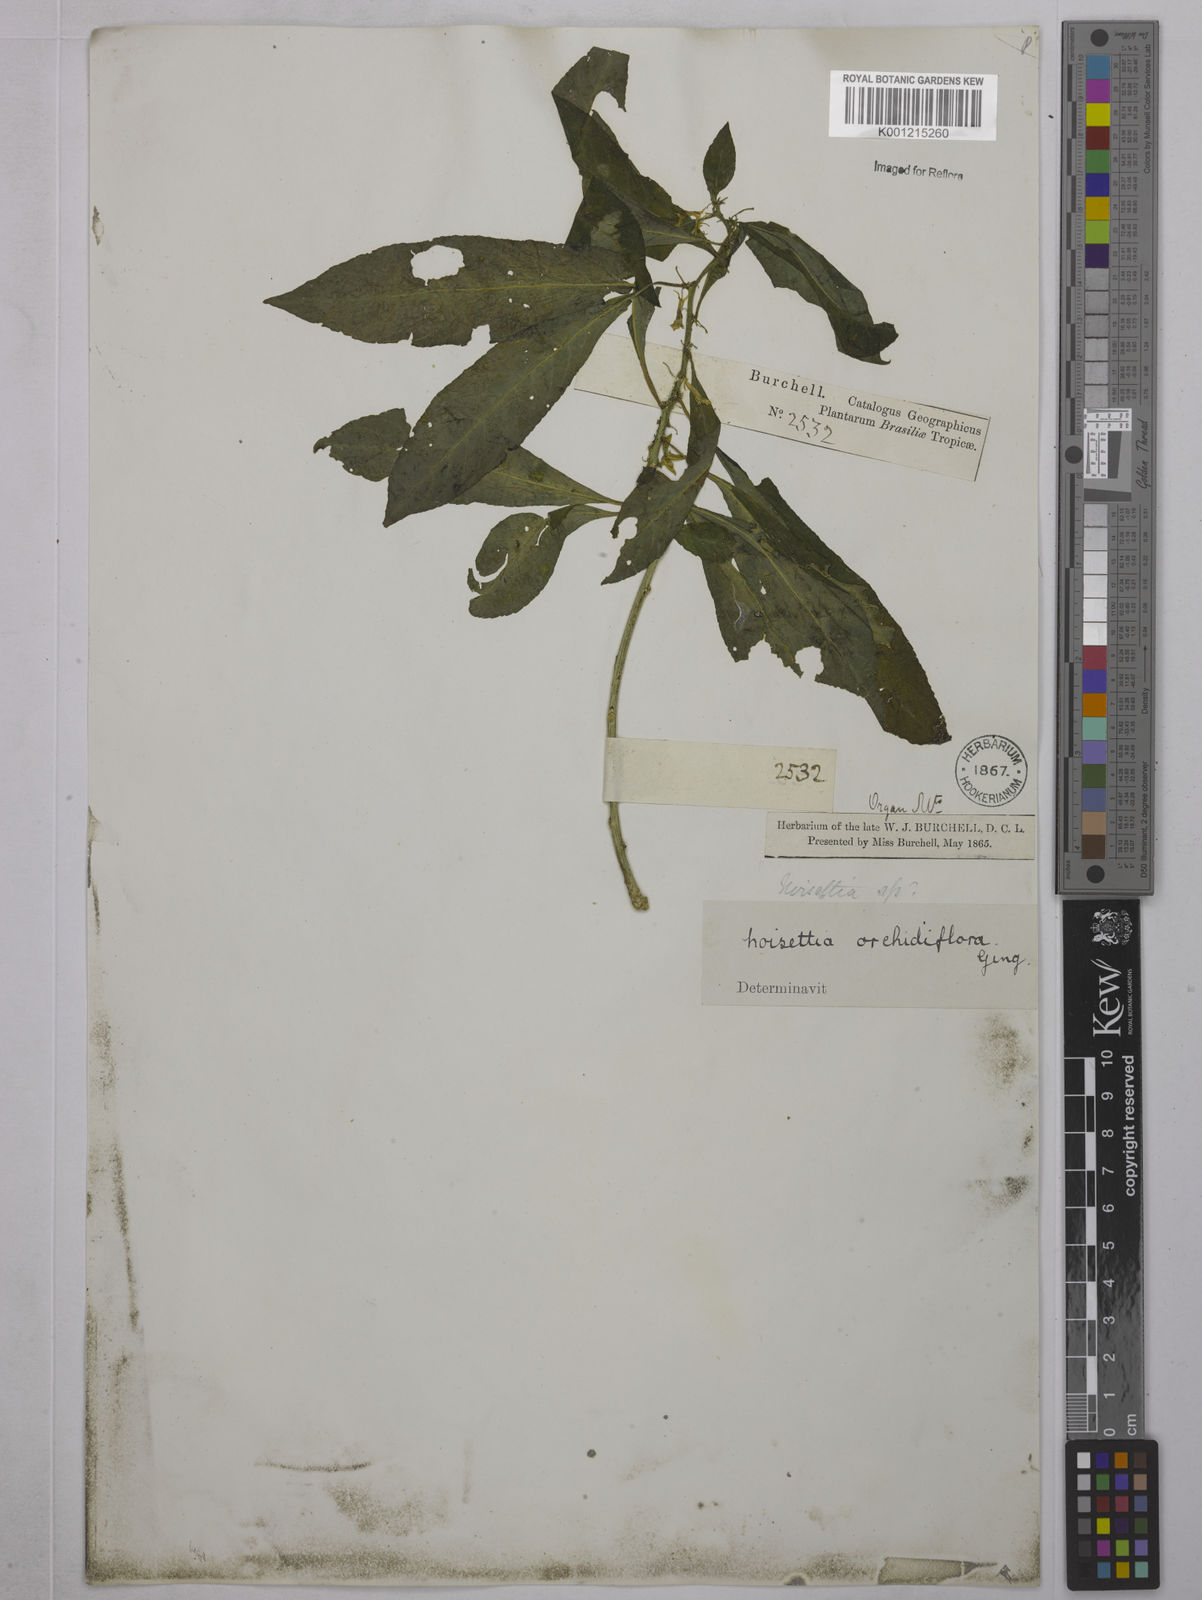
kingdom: Plantae
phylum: Tracheophyta
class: Magnoliopsida
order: Malpighiales
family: Violaceae
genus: Noisettia
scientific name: Noisettia orchidiflora
